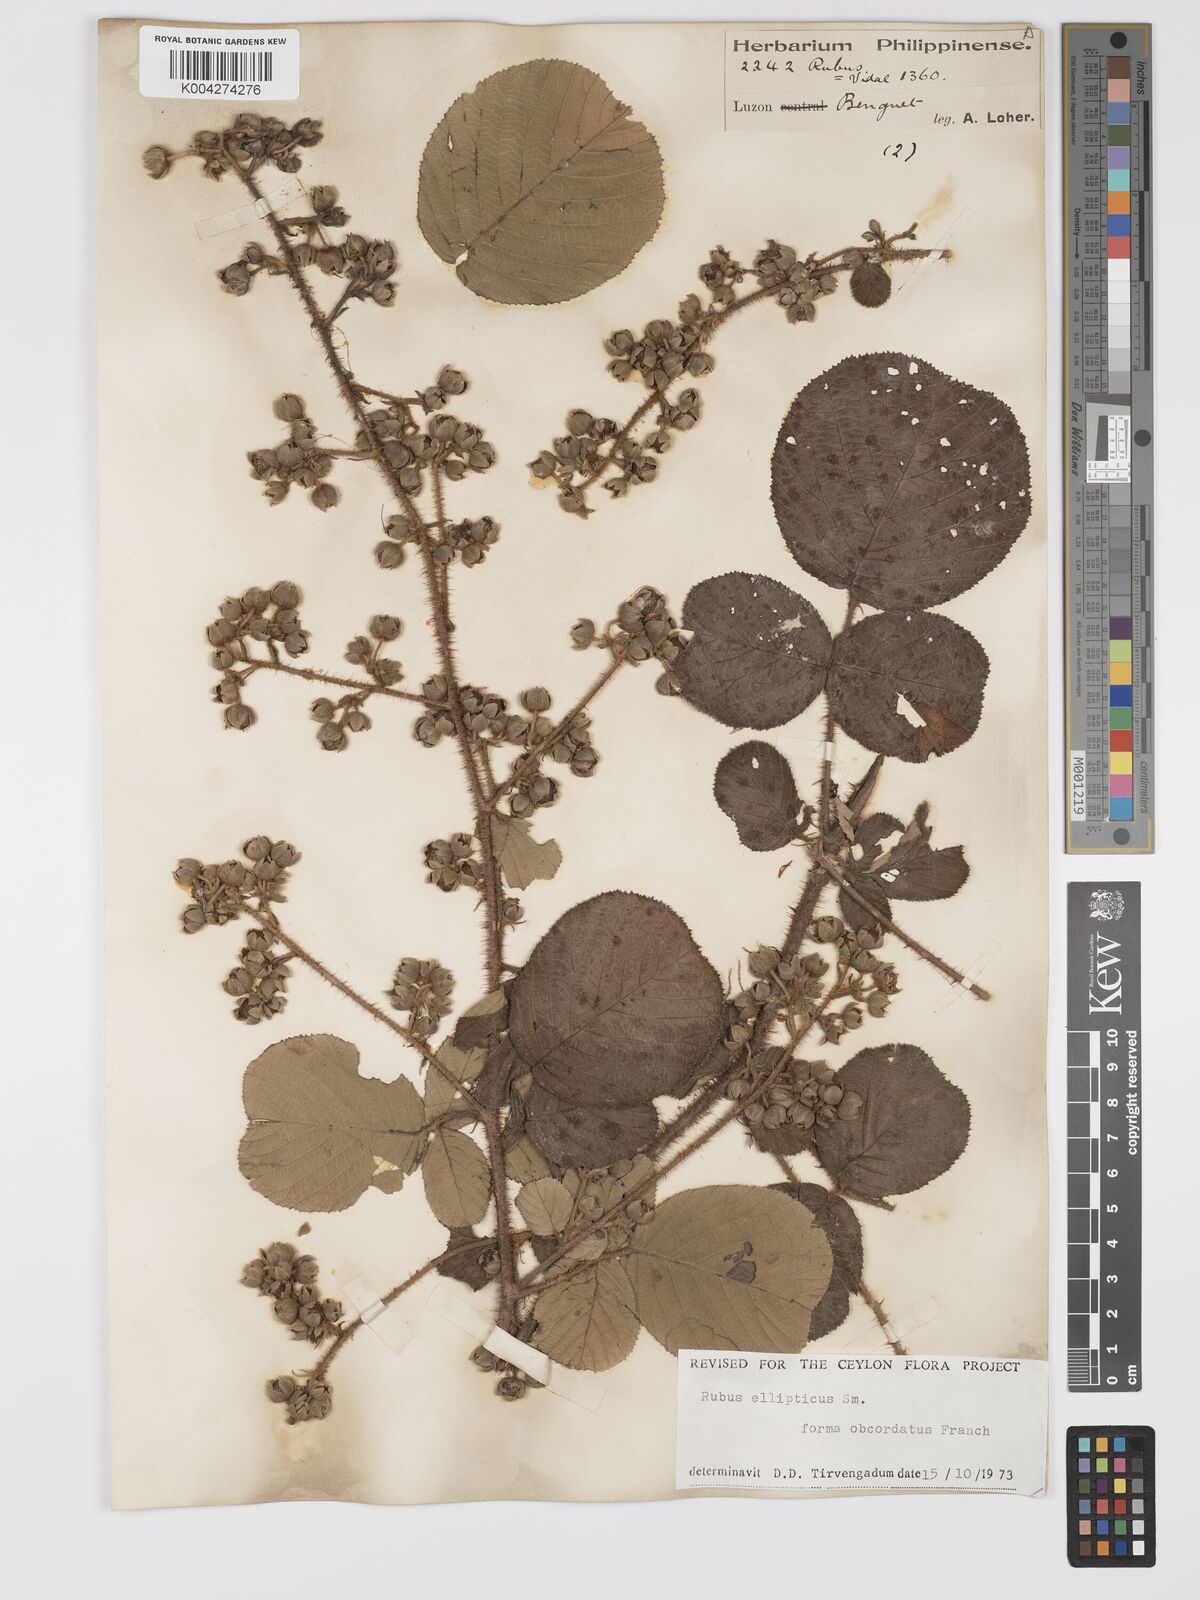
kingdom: Plantae
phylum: Tracheophyta
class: Magnoliopsida
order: Rosales
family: Rosaceae
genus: Rubus
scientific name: Rubus ellipticus
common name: Cheeseberry
